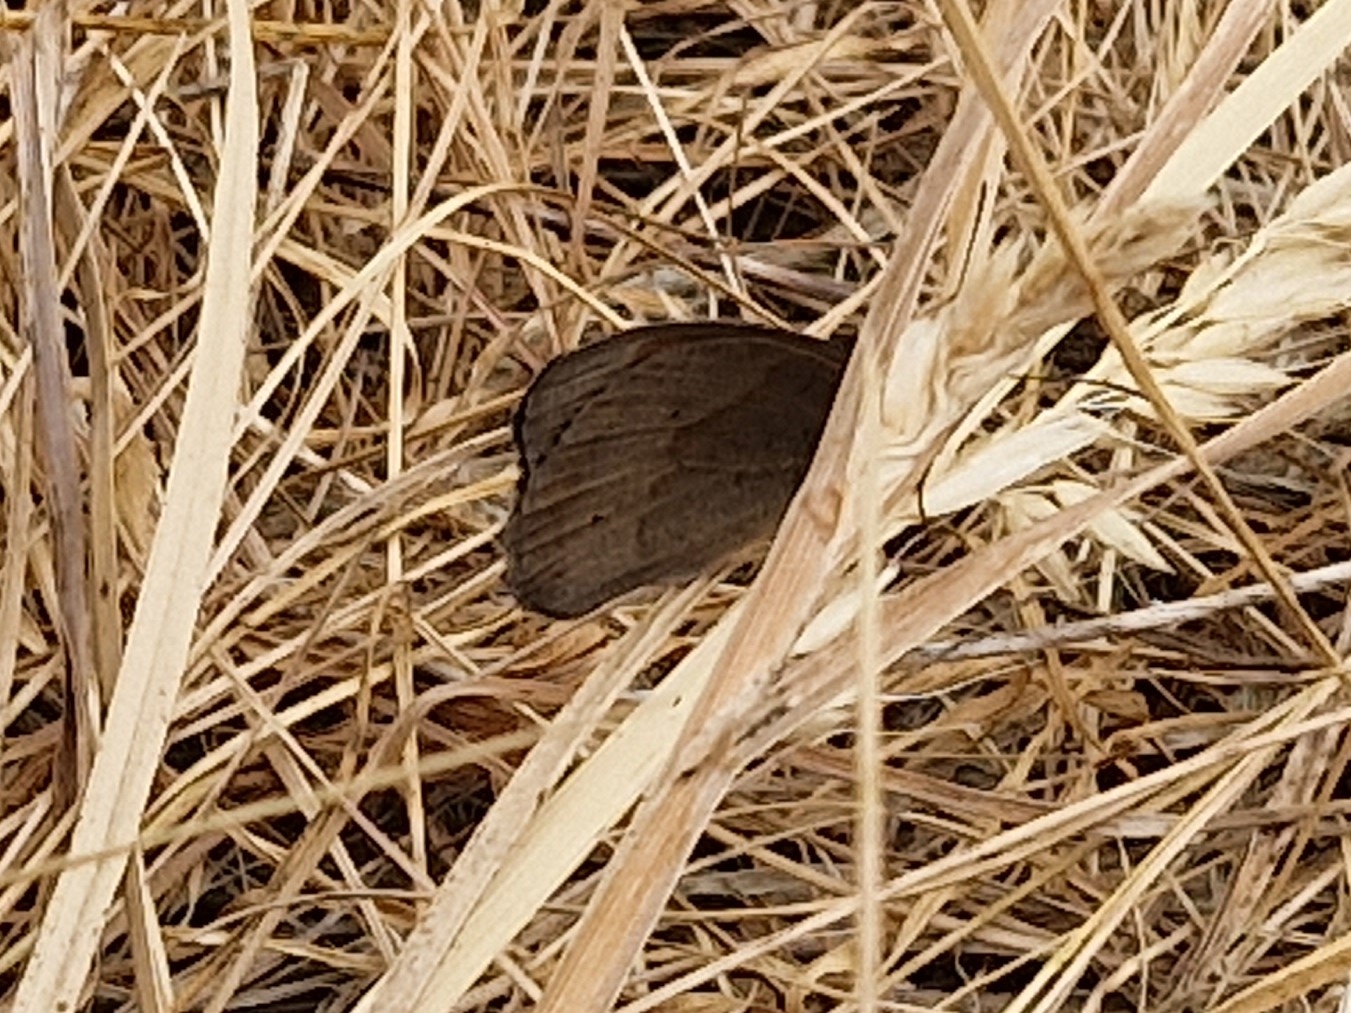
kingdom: Animalia
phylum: Arthropoda
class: Insecta
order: Lepidoptera
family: Nymphalidae
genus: Maniola
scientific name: Maniola jurtina
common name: Græsrandøje
